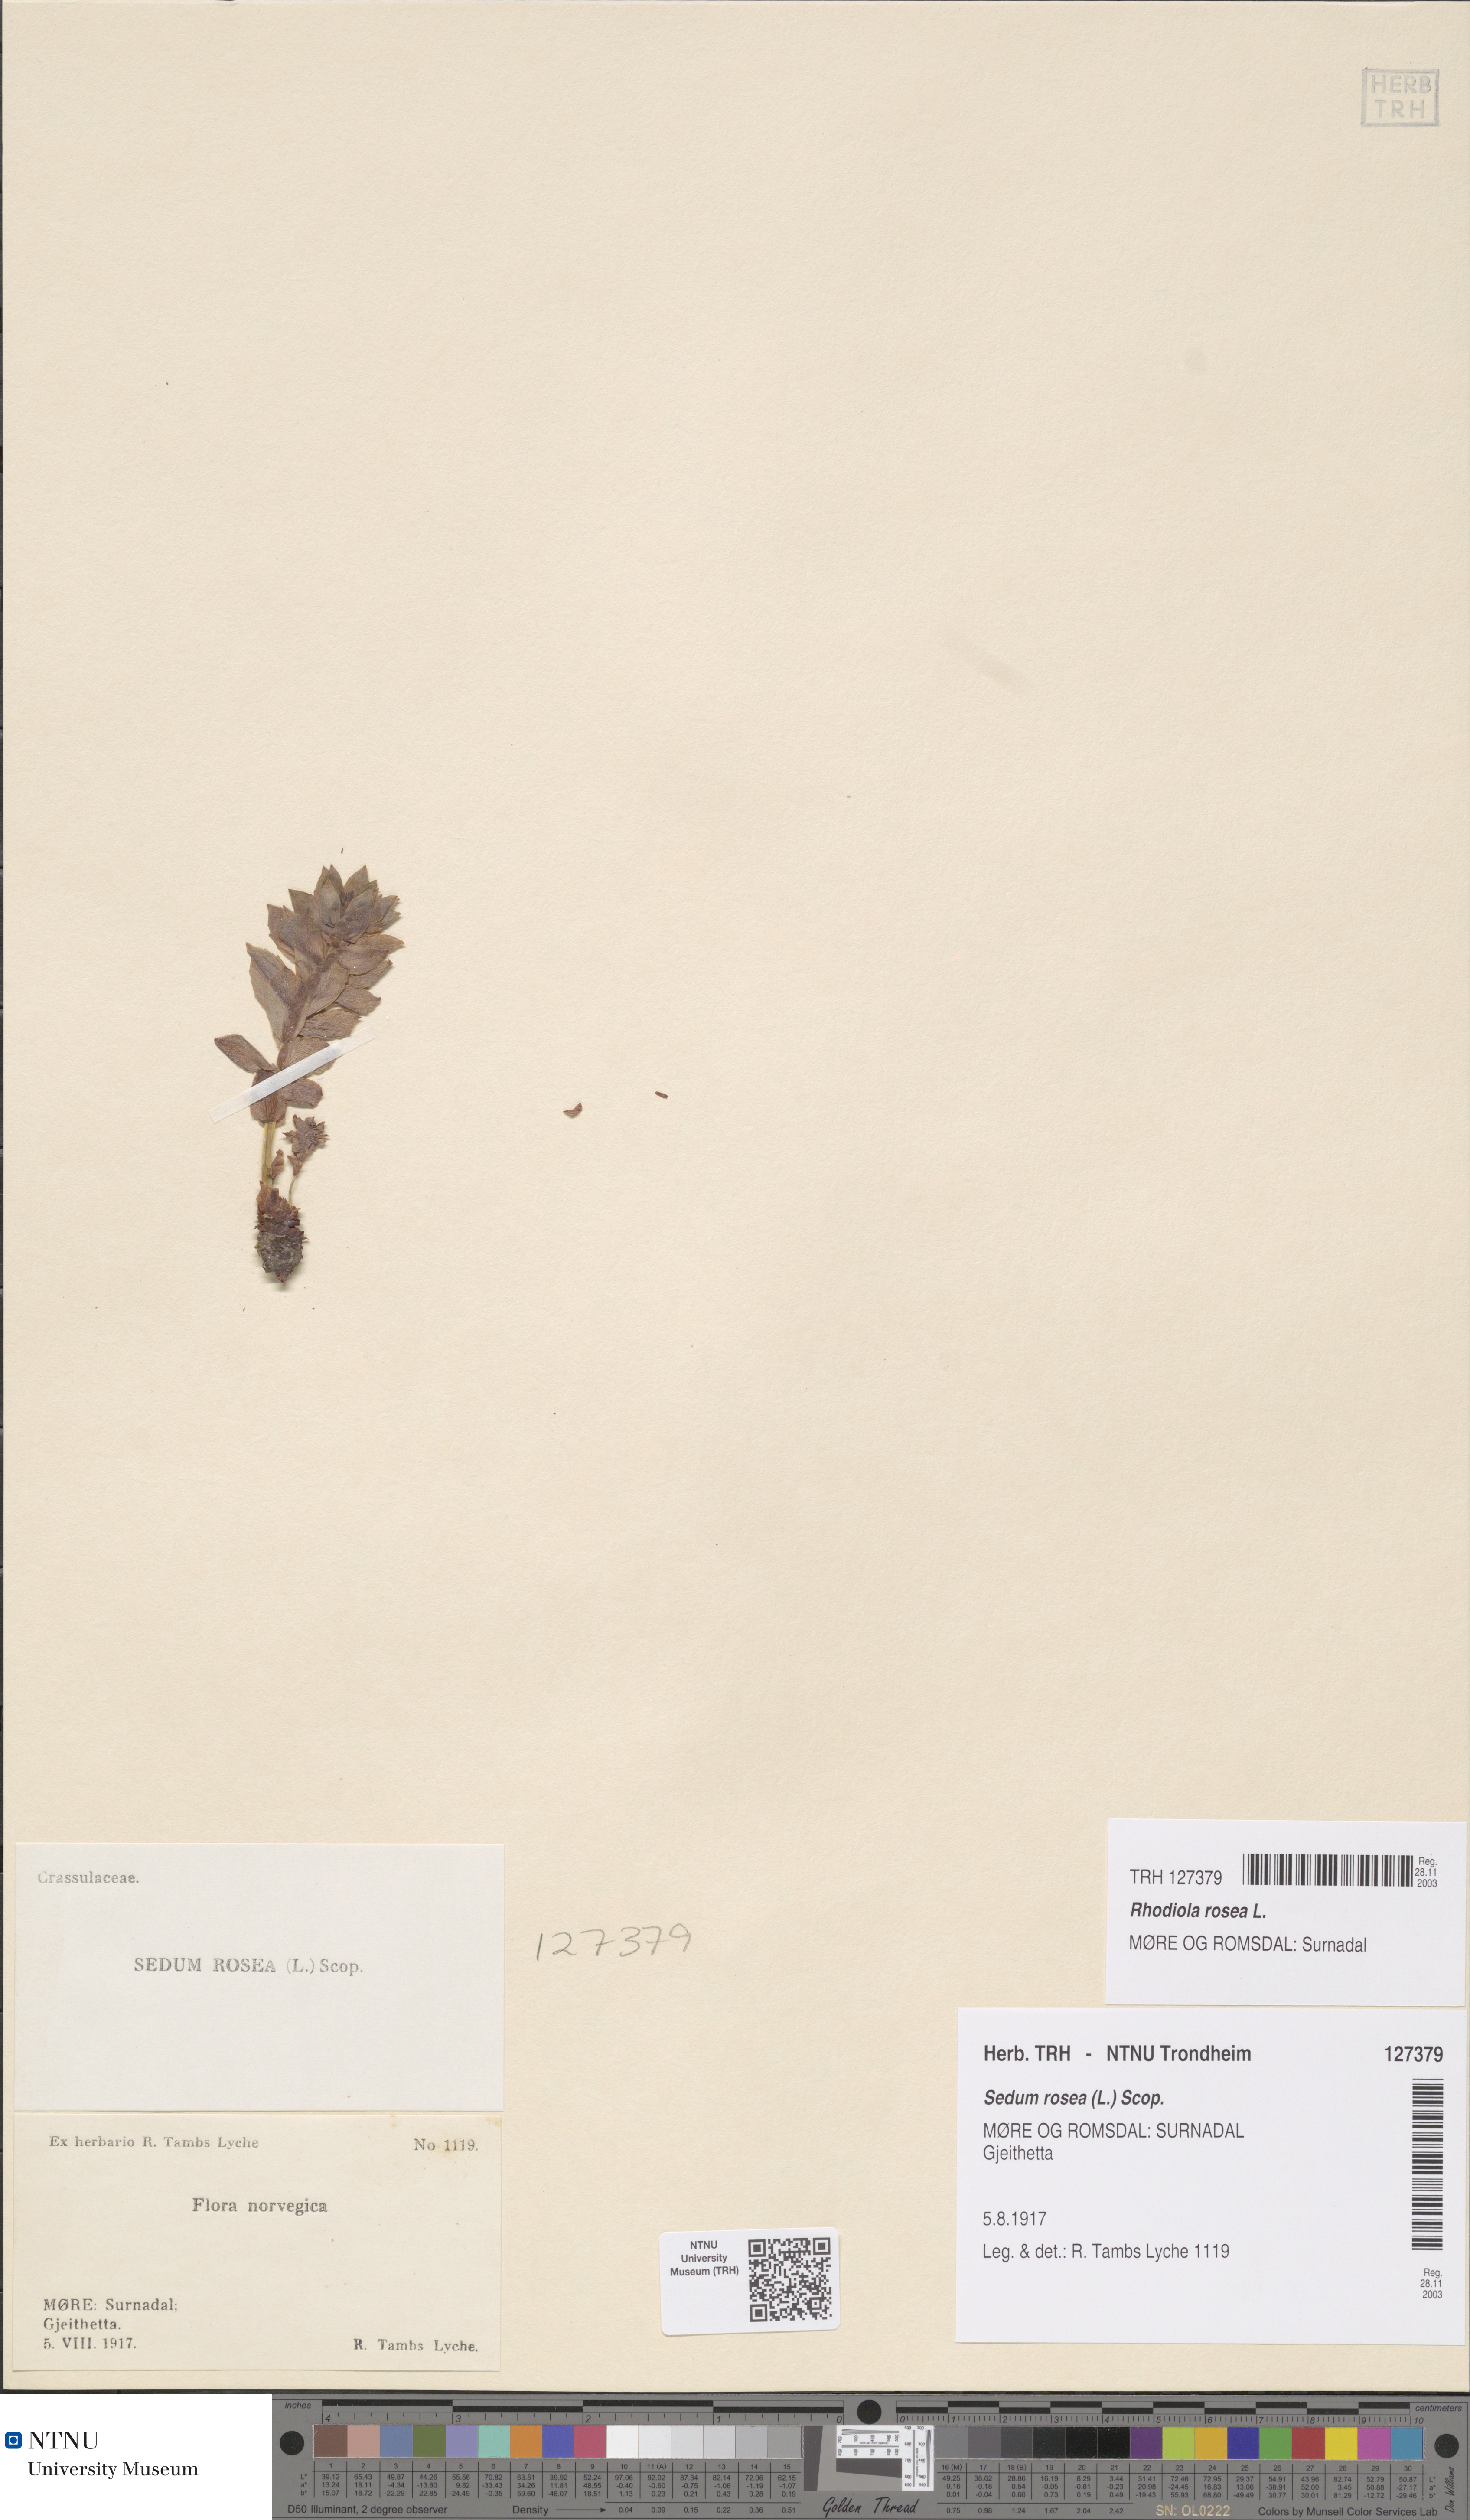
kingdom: Plantae
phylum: Tracheophyta
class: Magnoliopsida
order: Saxifragales
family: Crassulaceae
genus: Rhodiola
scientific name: Rhodiola rosea
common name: Roseroot
